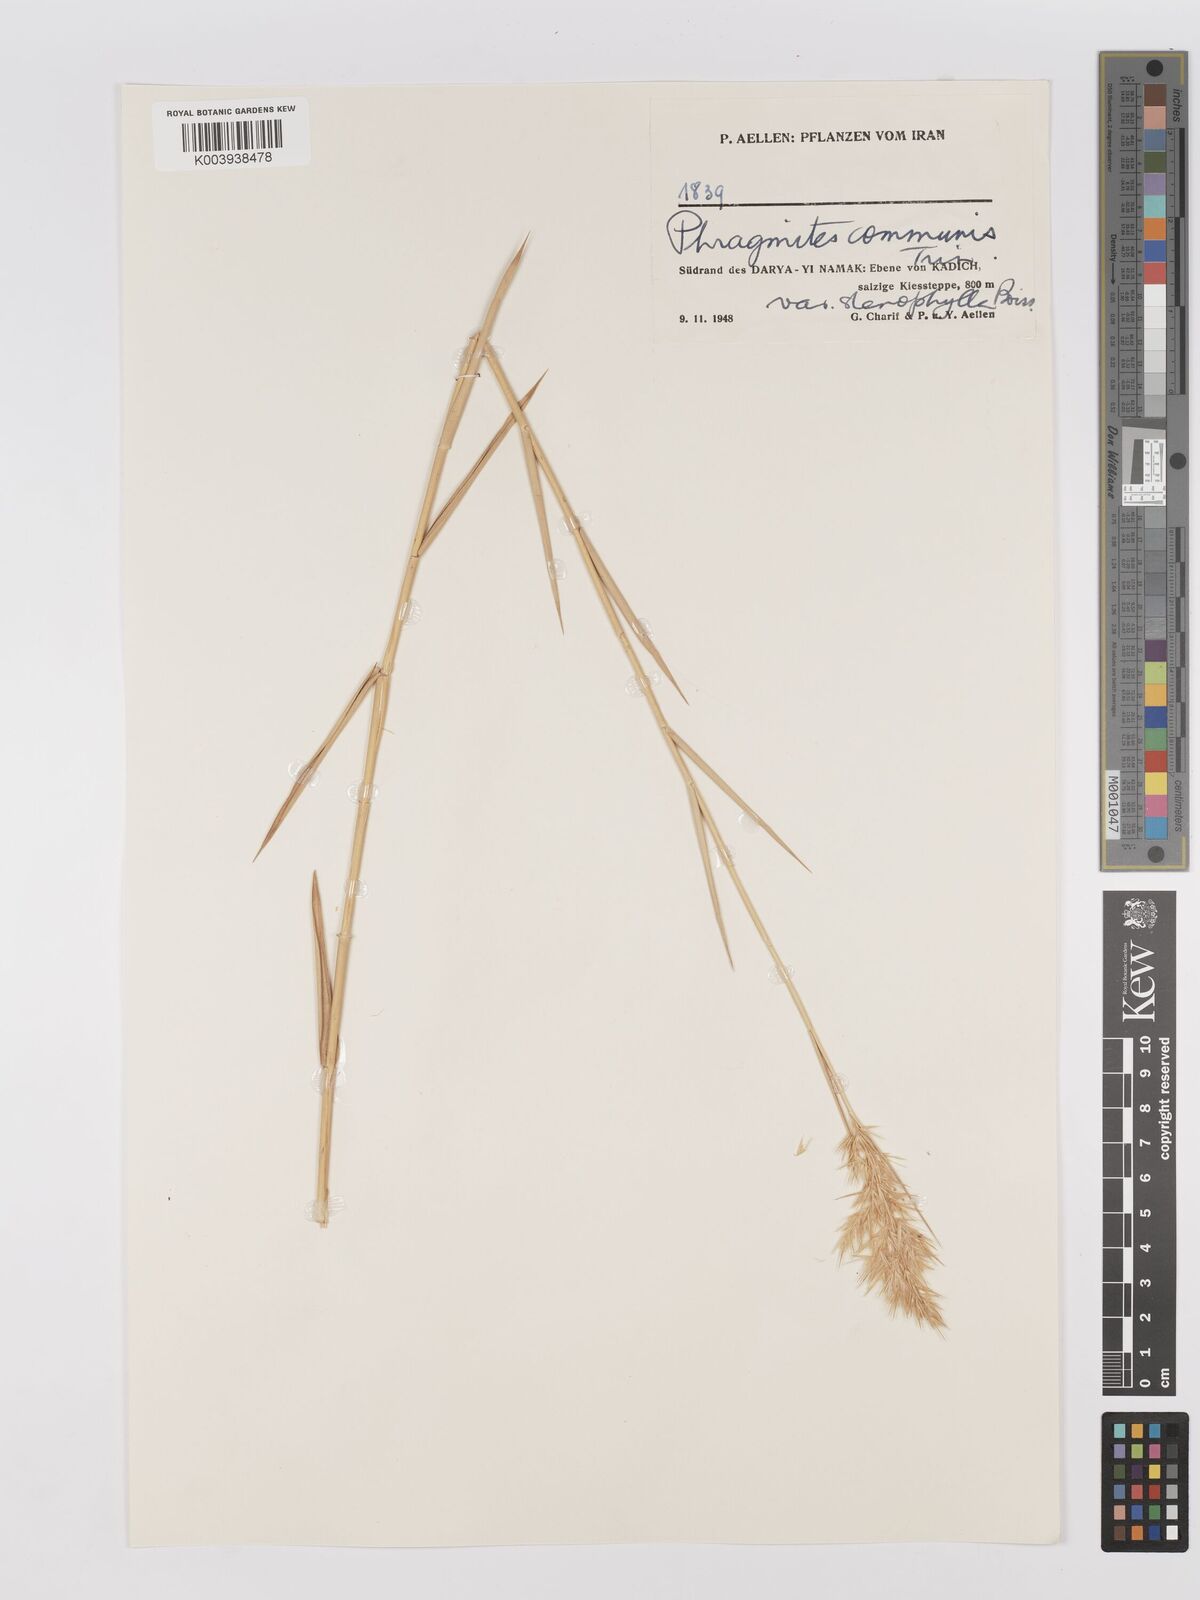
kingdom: Plantae
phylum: Tracheophyta
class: Liliopsida
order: Poales
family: Poaceae
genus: Phragmites
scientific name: Phragmites australis
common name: Common reed
